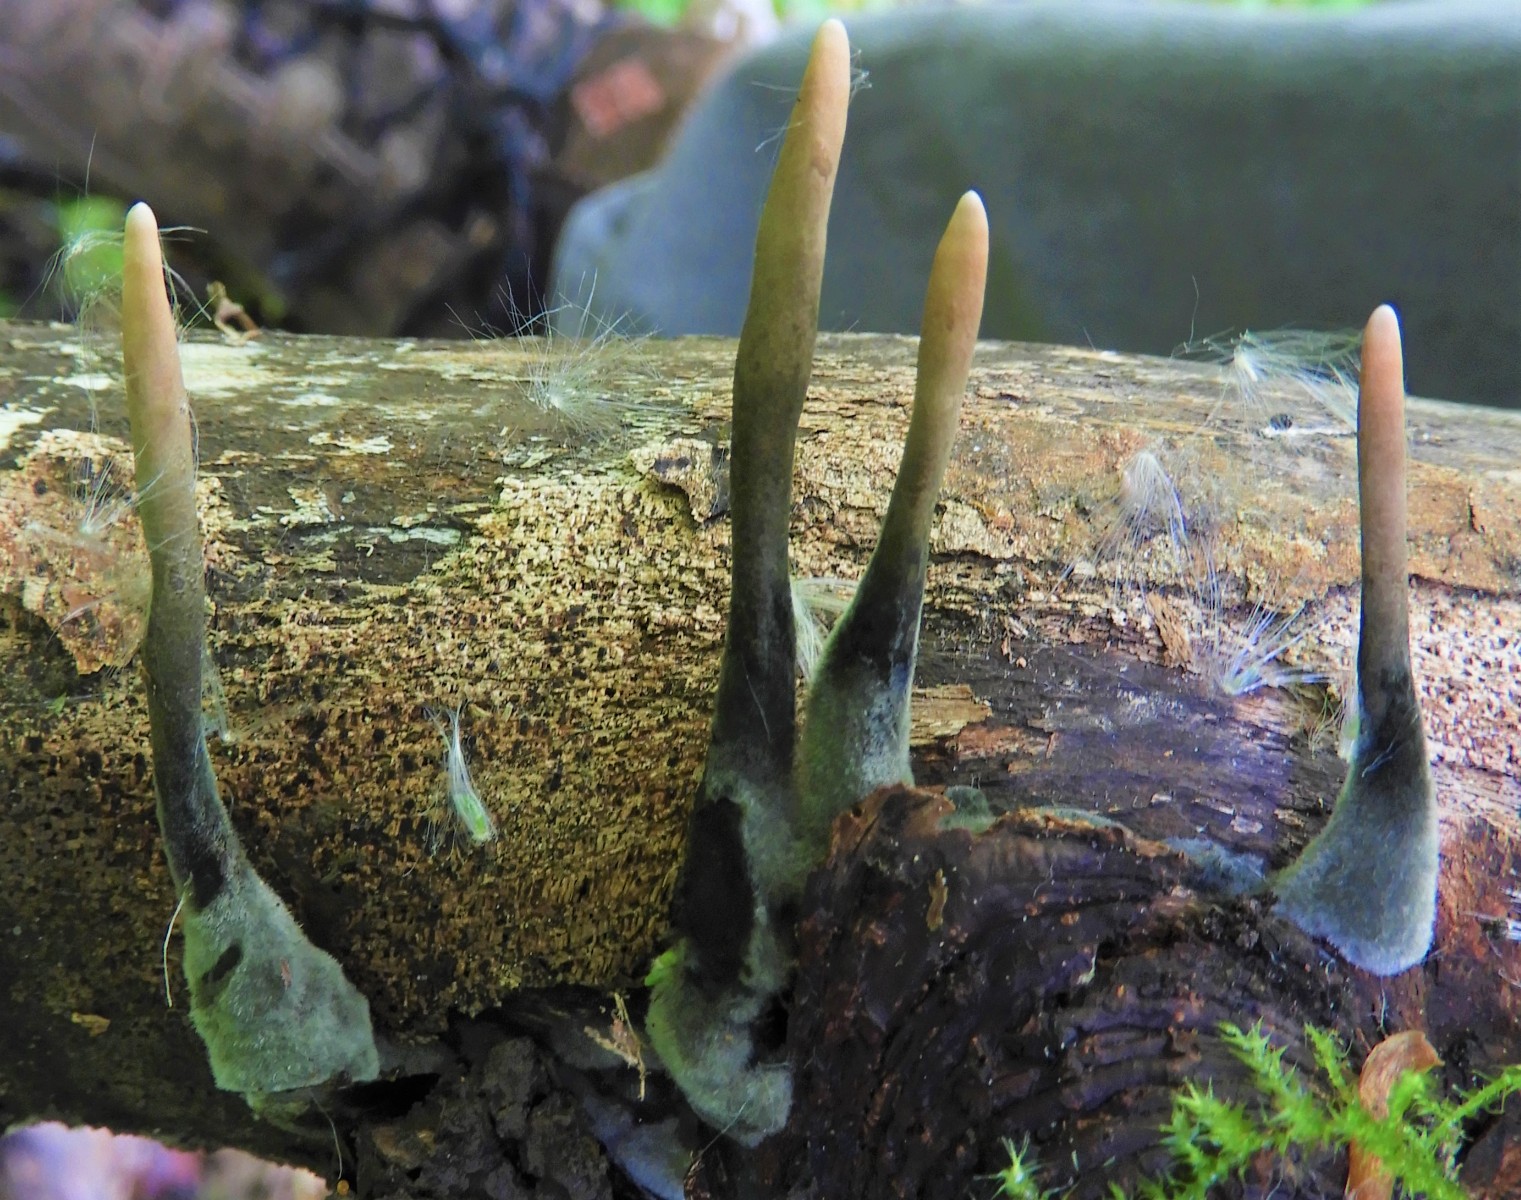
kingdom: Fungi
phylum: Ascomycota
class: Sordariomycetes
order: Xylariales
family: Xylariaceae
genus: Xylaria
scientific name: Xylaria longipes
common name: slank stødsvamp
